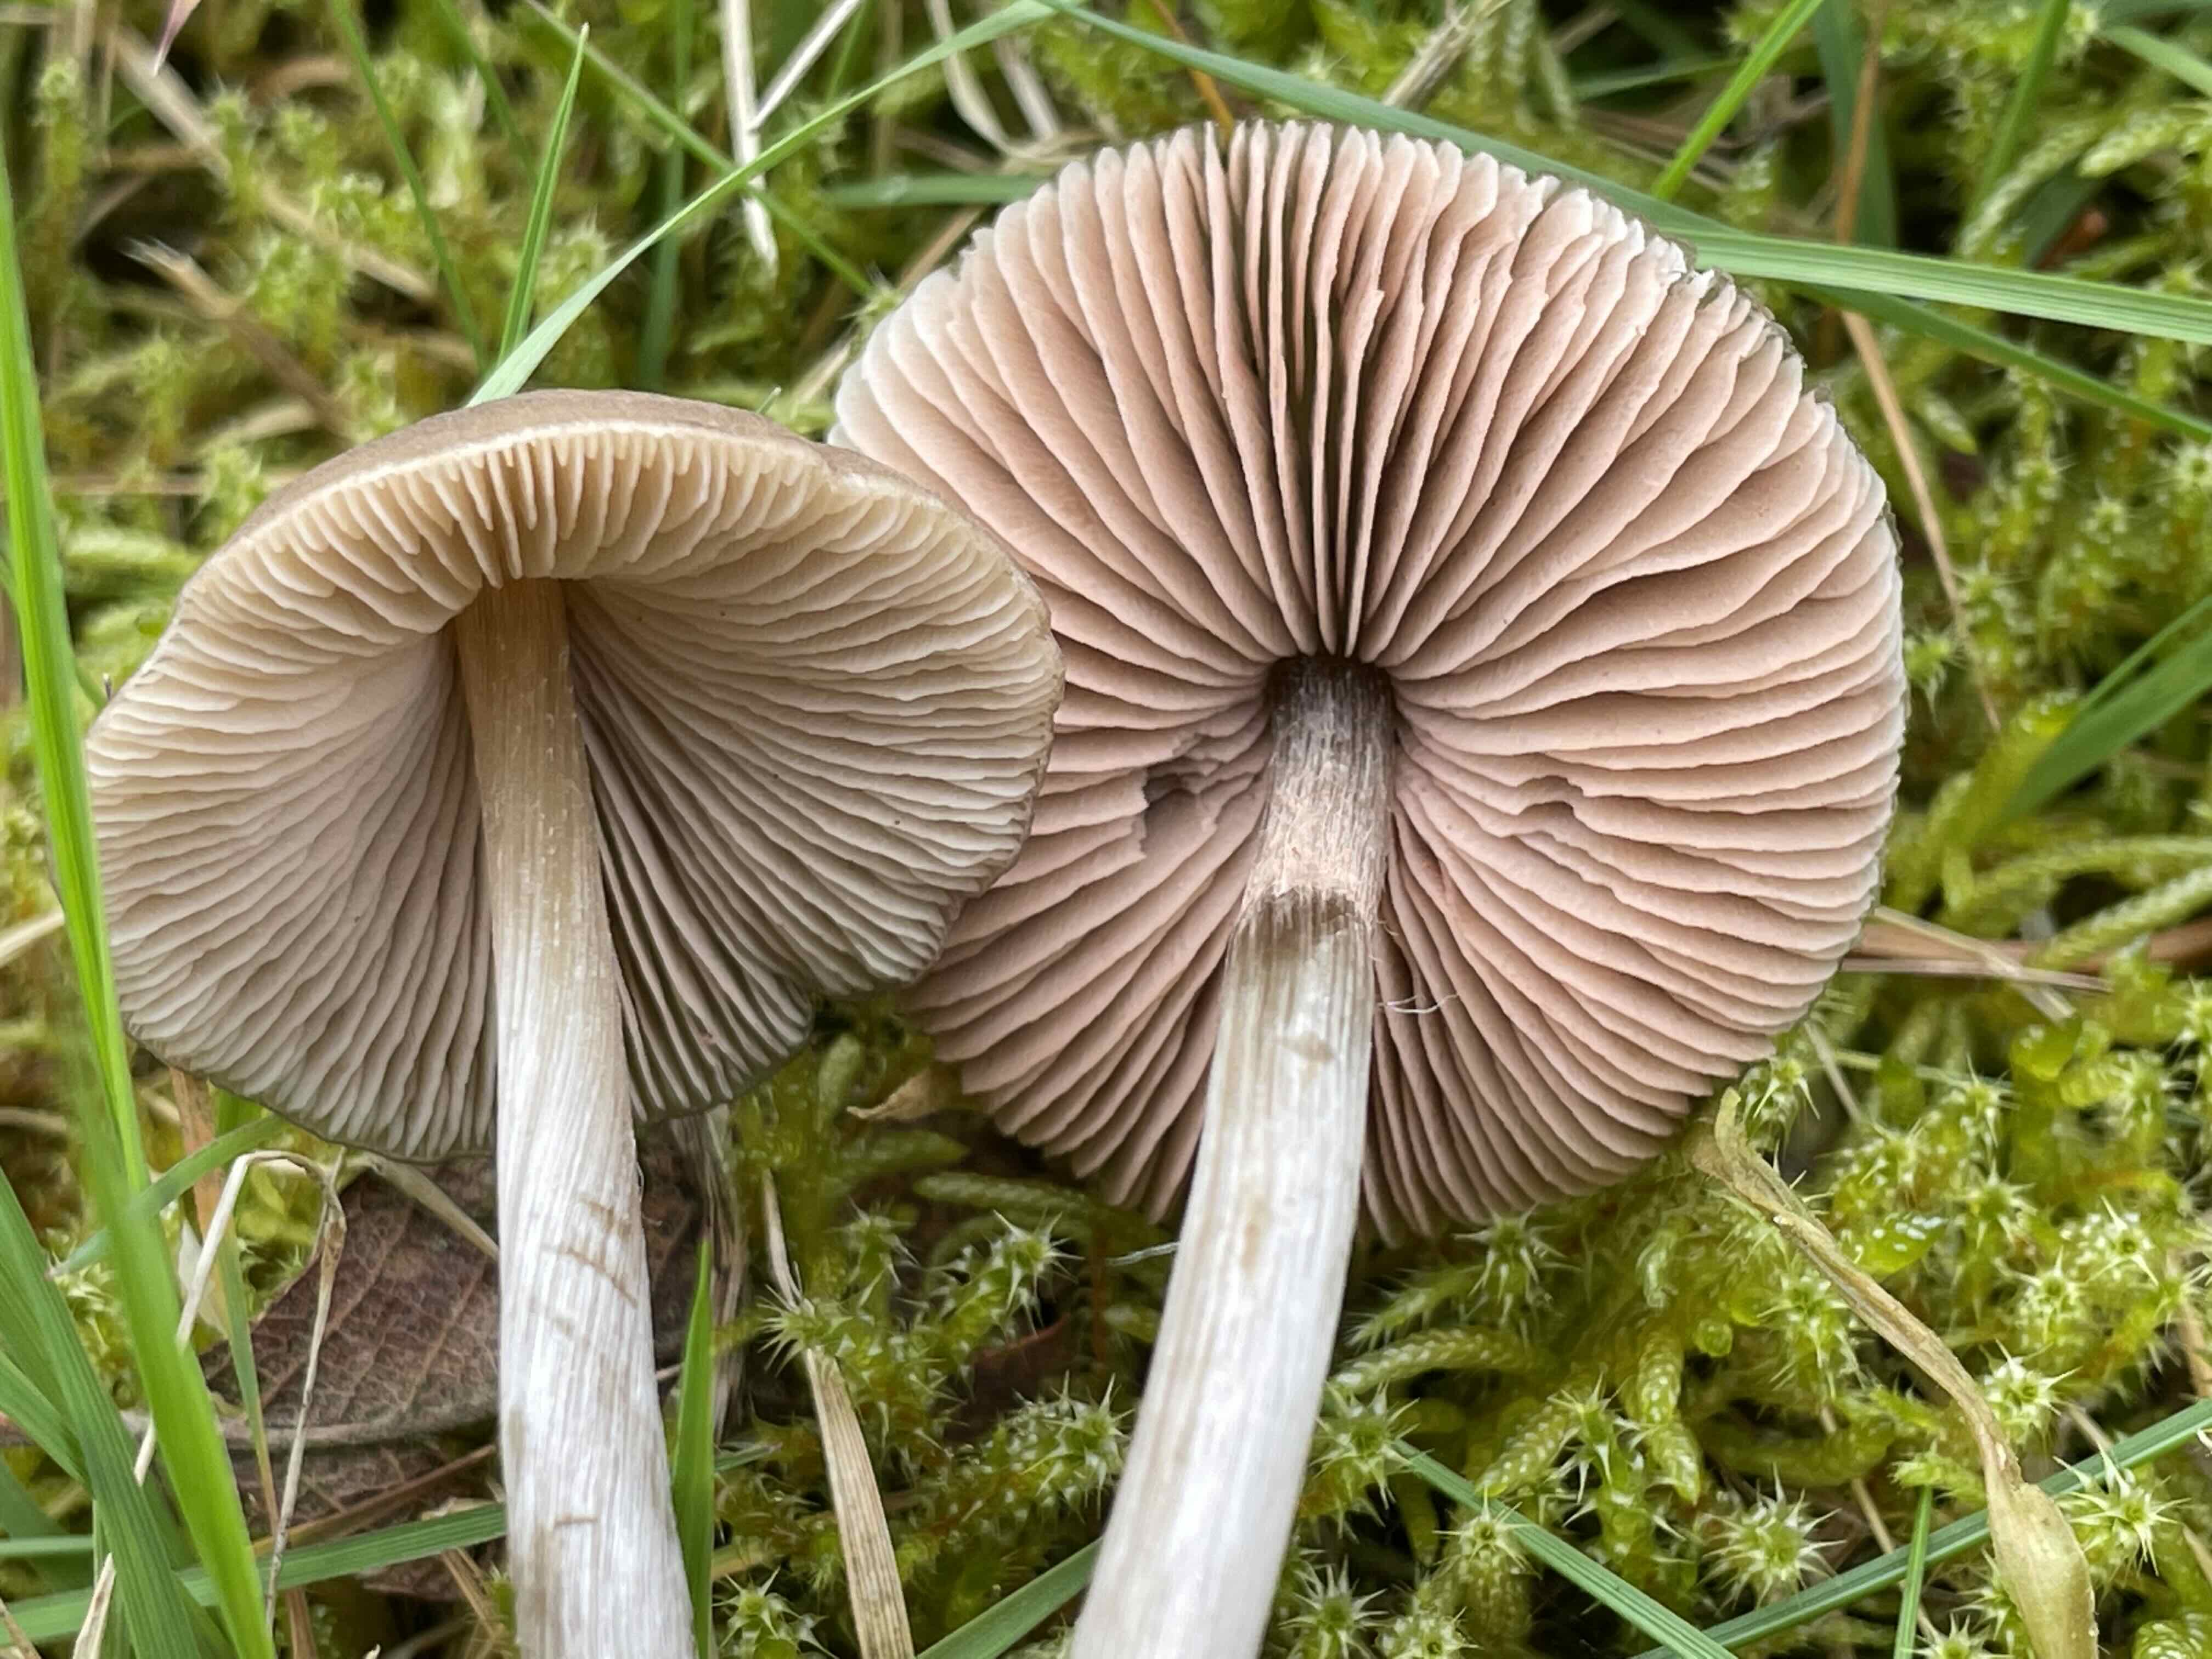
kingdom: Fungi
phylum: Basidiomycota
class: Agaricomycetes
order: Agaricales
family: Entolomataceae
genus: Entoloma
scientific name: Entoloma
